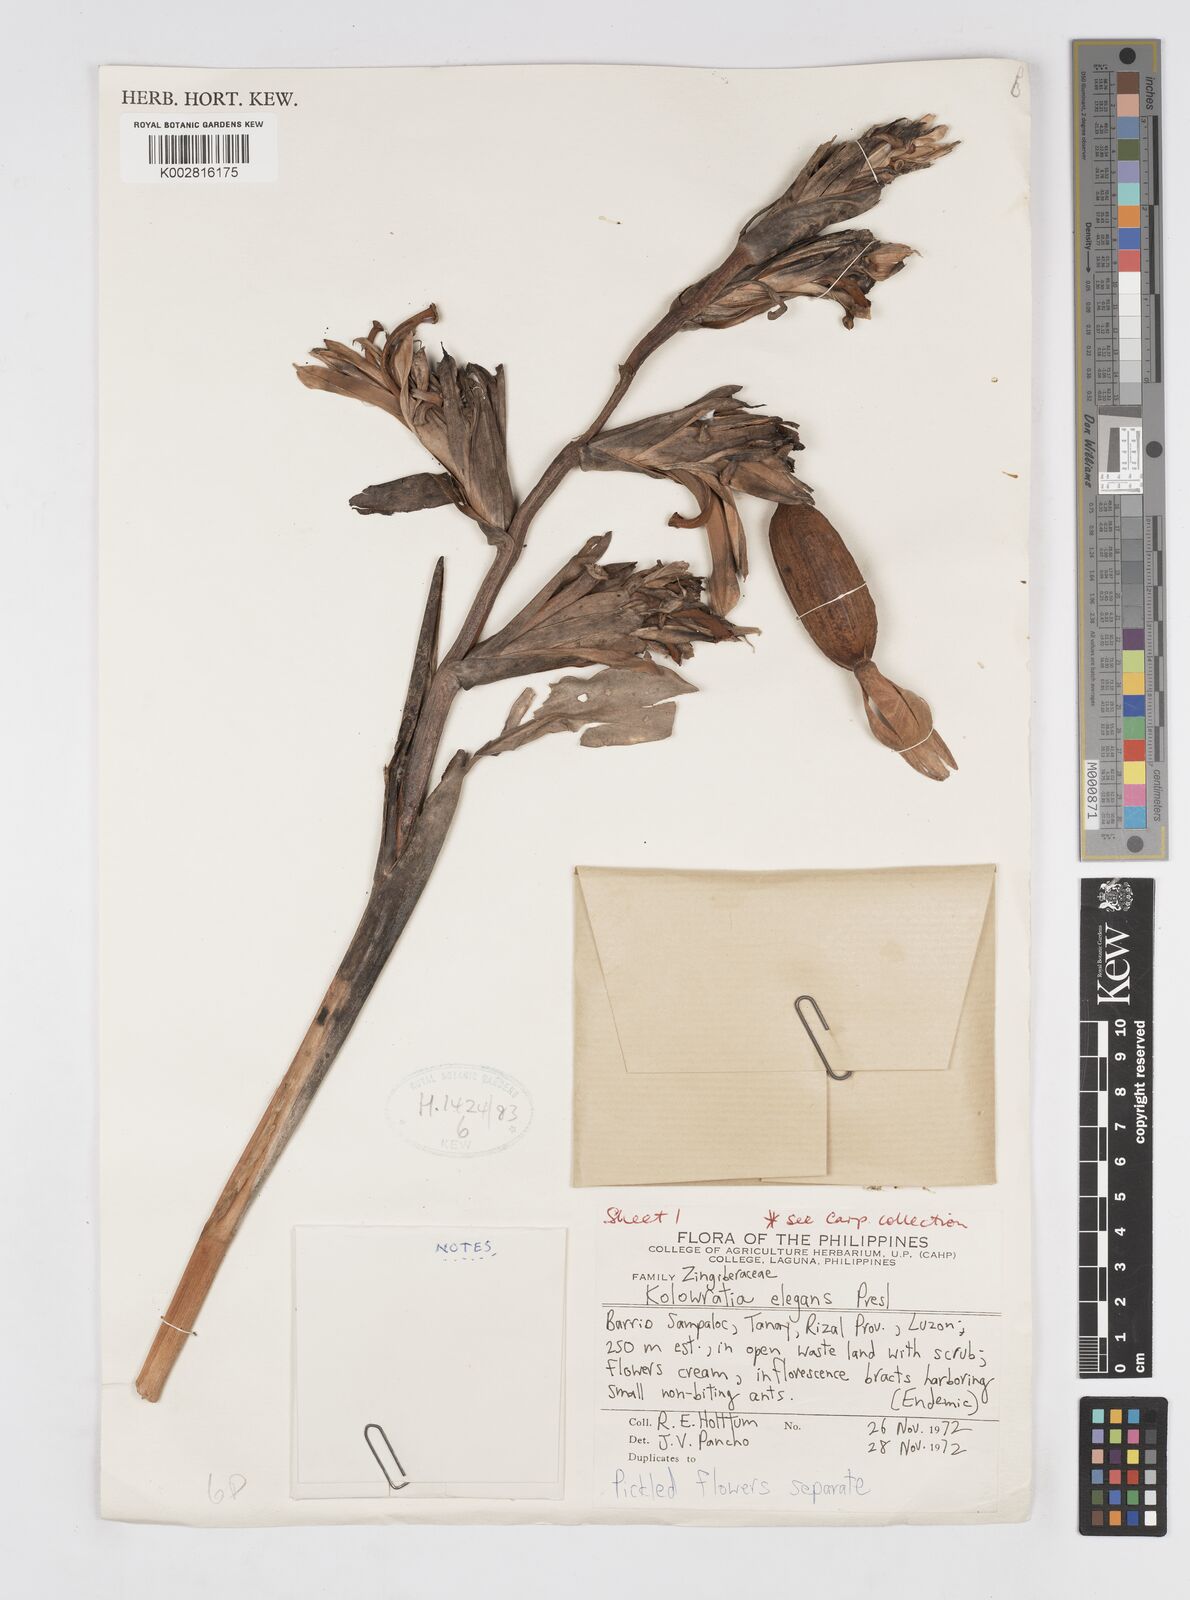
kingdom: Plantae
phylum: Tracheophyta
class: Liliopsida
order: Zingiberales
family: Zingiberaceae
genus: Alpinia
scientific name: Alpinia elegans
